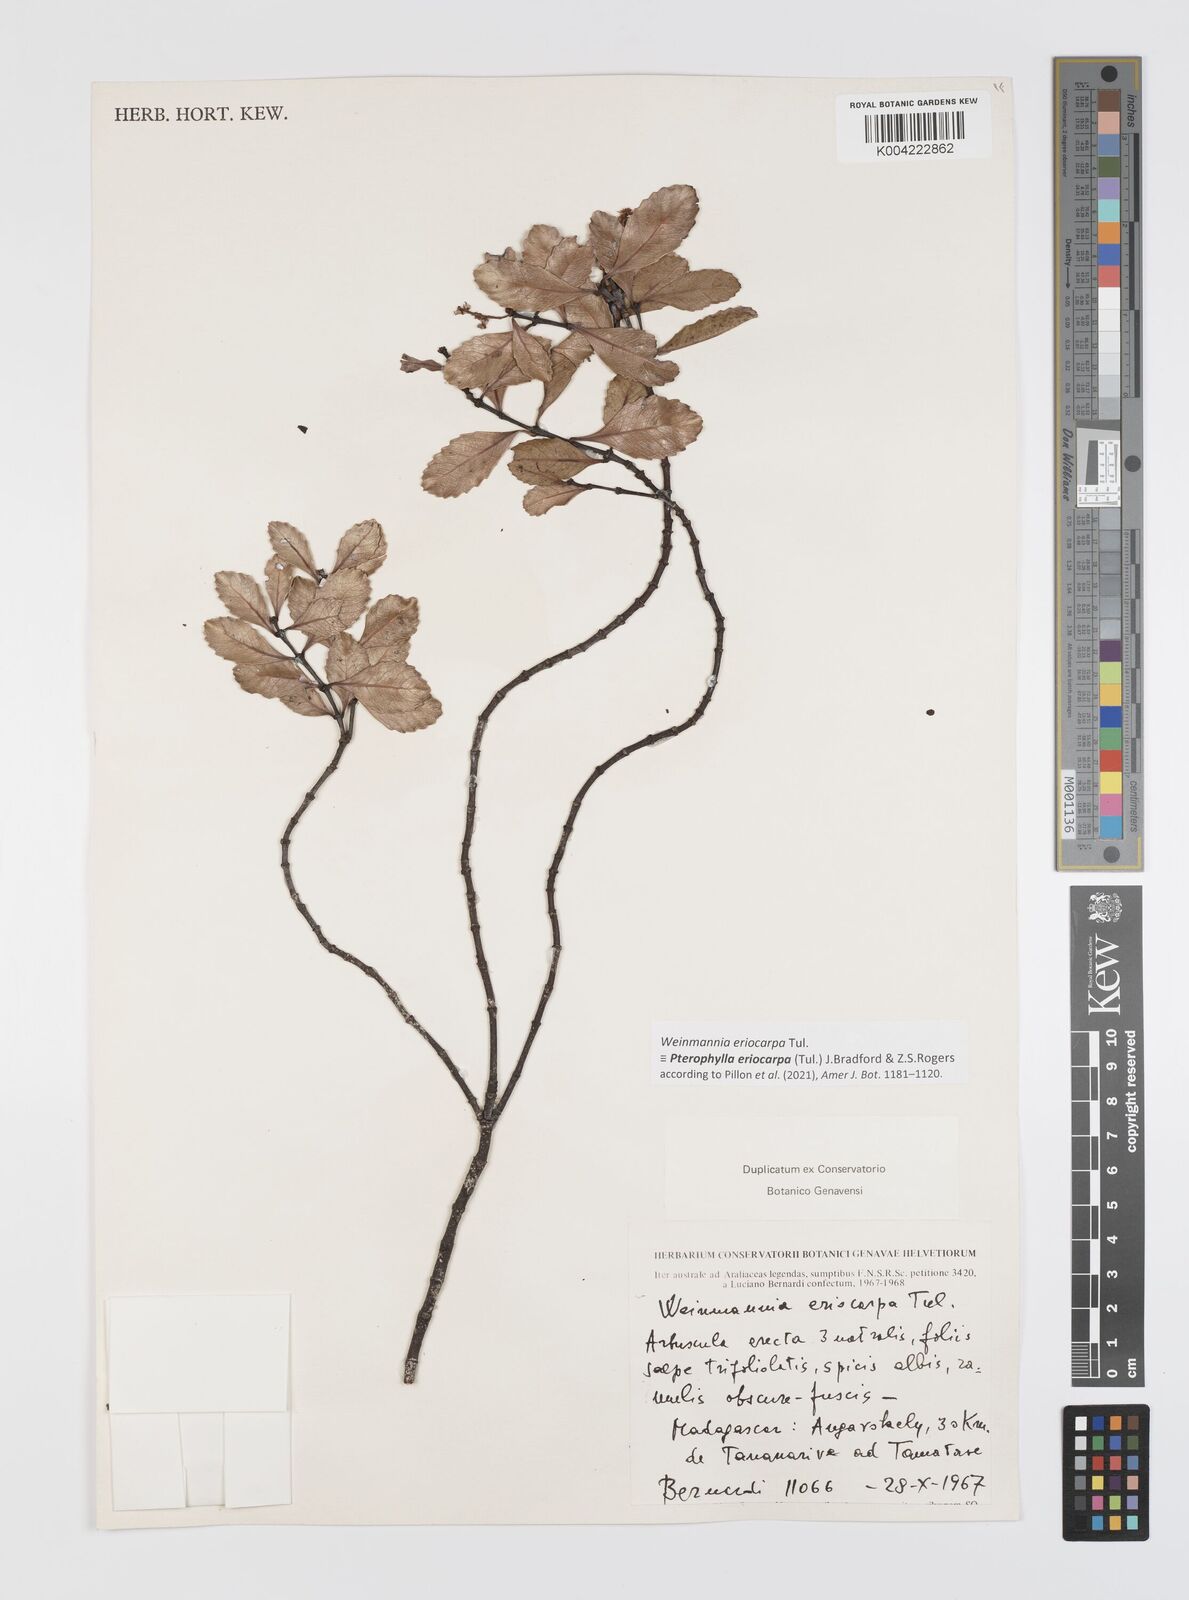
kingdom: Plantae
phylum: Tracheophyta
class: Magnoliopsida
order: Oxalidales
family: Cunoniaceae
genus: Pterophylla
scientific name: Pterophylla eriocarpa
